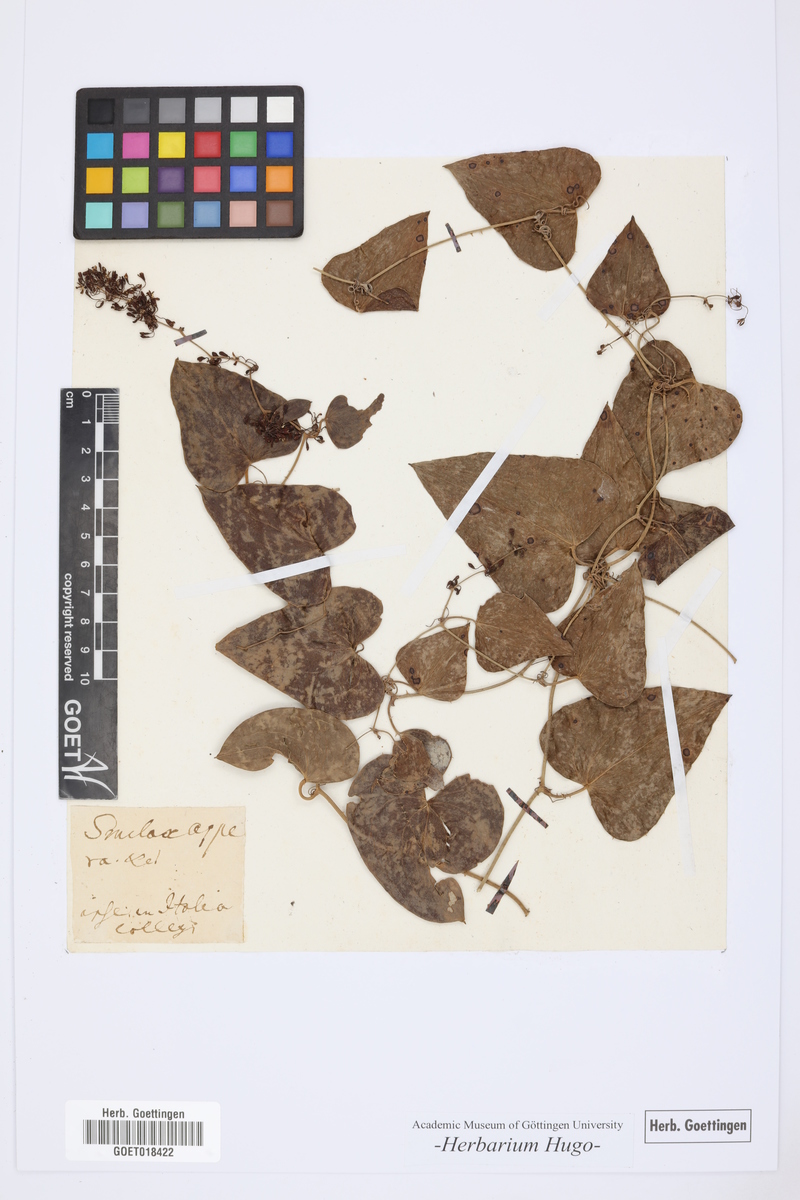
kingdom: Plantae
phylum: Tracheophyta
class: Liliopsida
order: Liliales
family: Smilacaceae
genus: Smilax
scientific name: Smilax aspera
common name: Common smilax
